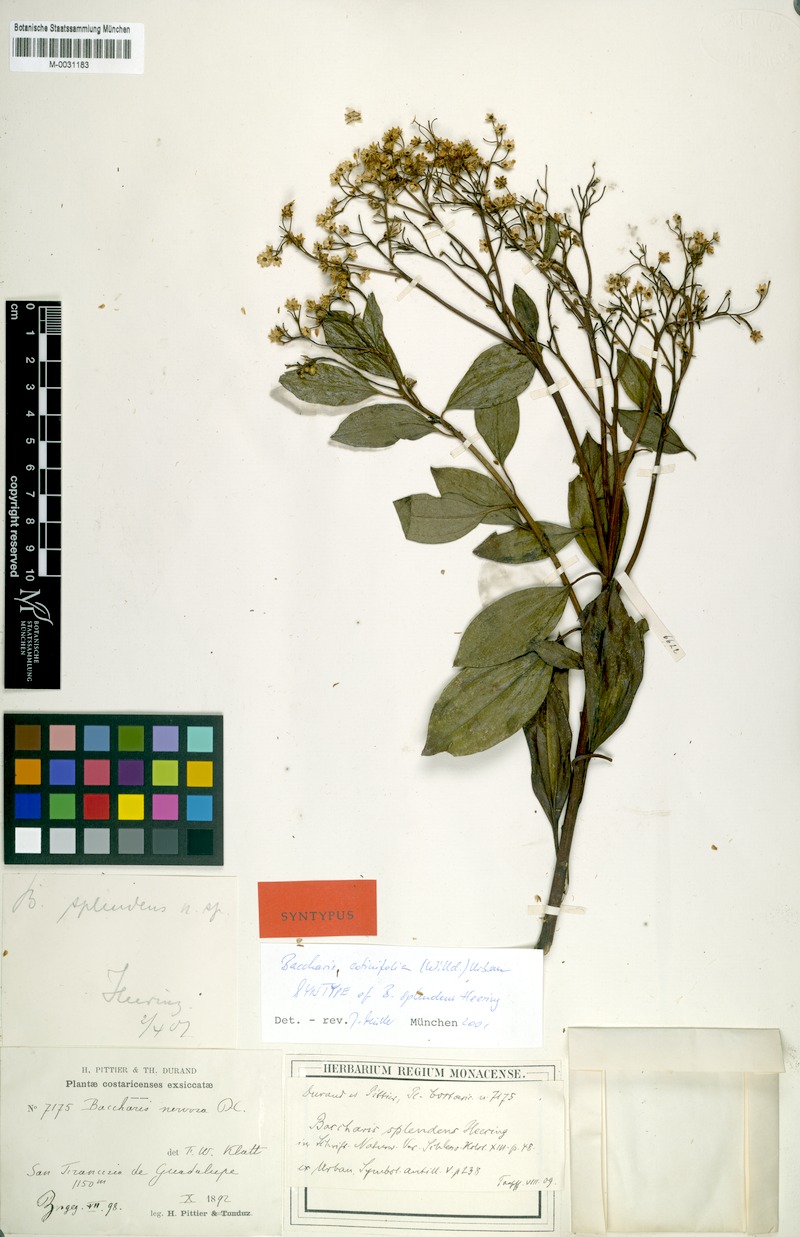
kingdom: Plantae
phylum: Tracheophyta
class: Magnoliopsida
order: Asterales
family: Asteraceae
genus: Baccharis
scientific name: Baccharis pedunculata
